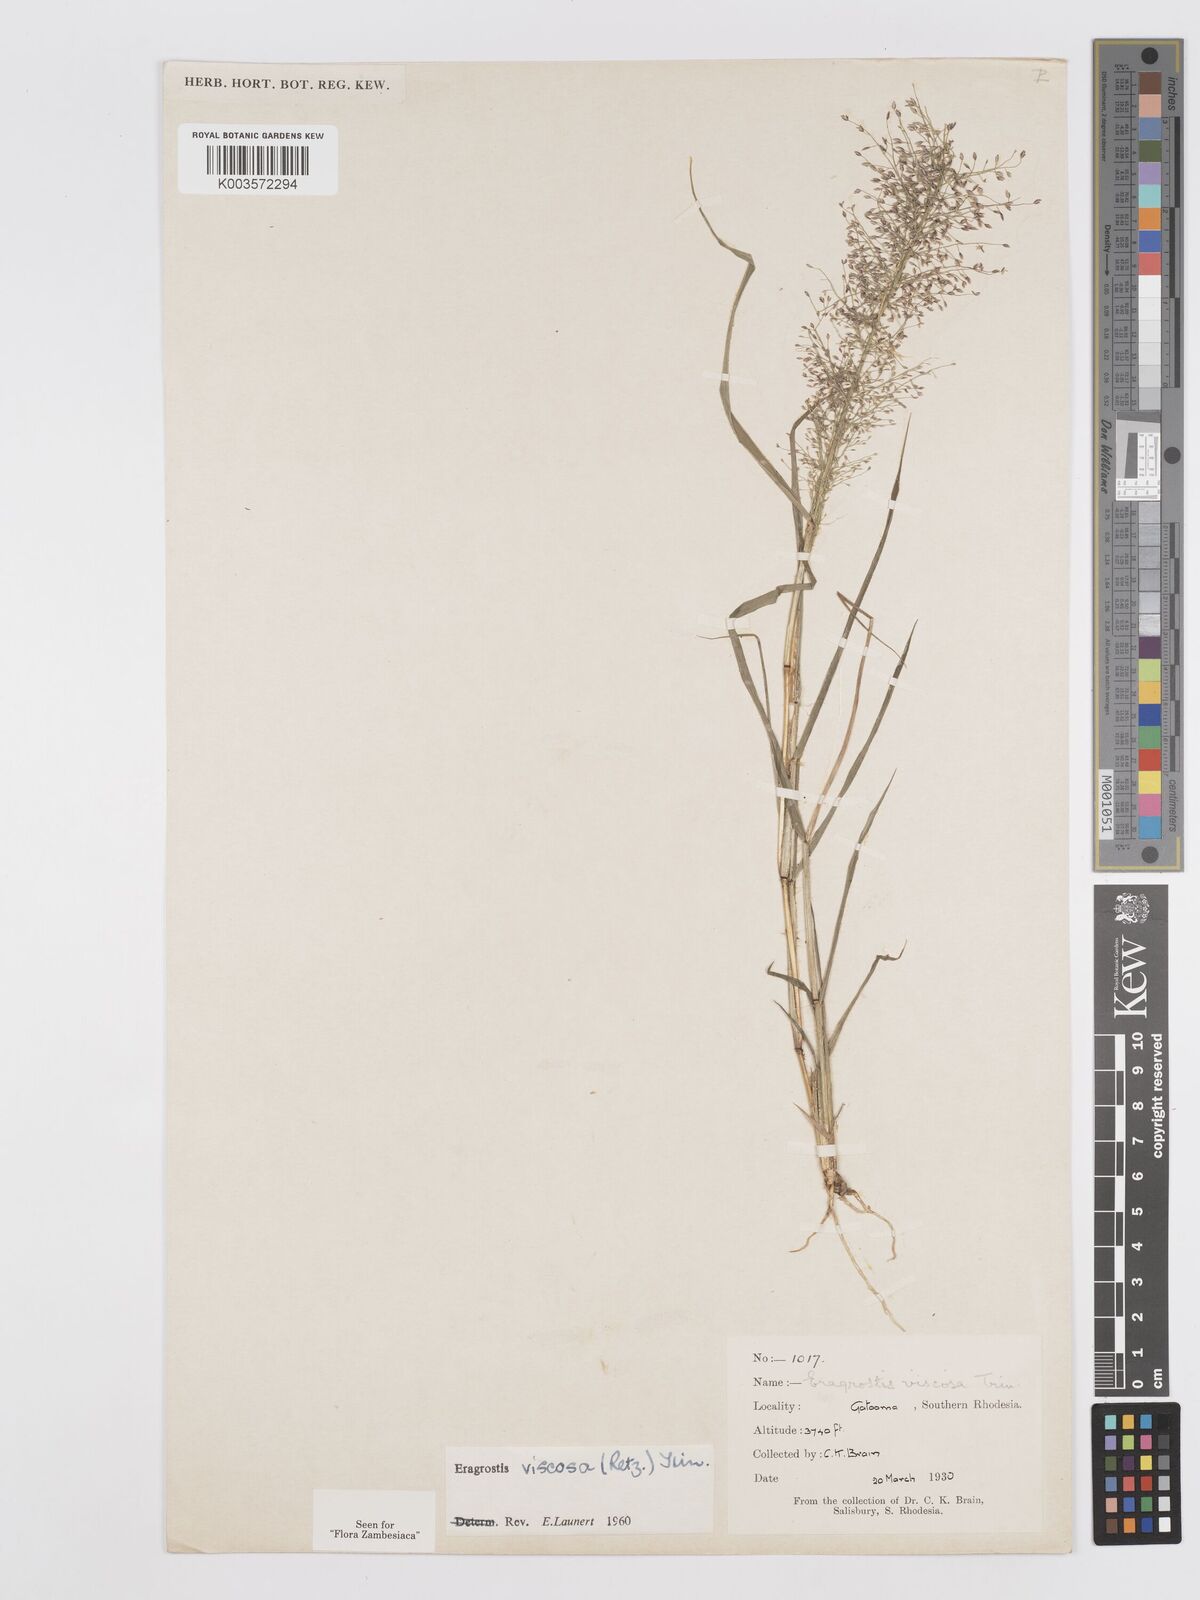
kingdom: Plantae
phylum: Tracheophyta
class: Liliopsida
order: Poales
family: Poaceae
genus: Eragrostis
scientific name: Eragrostis
